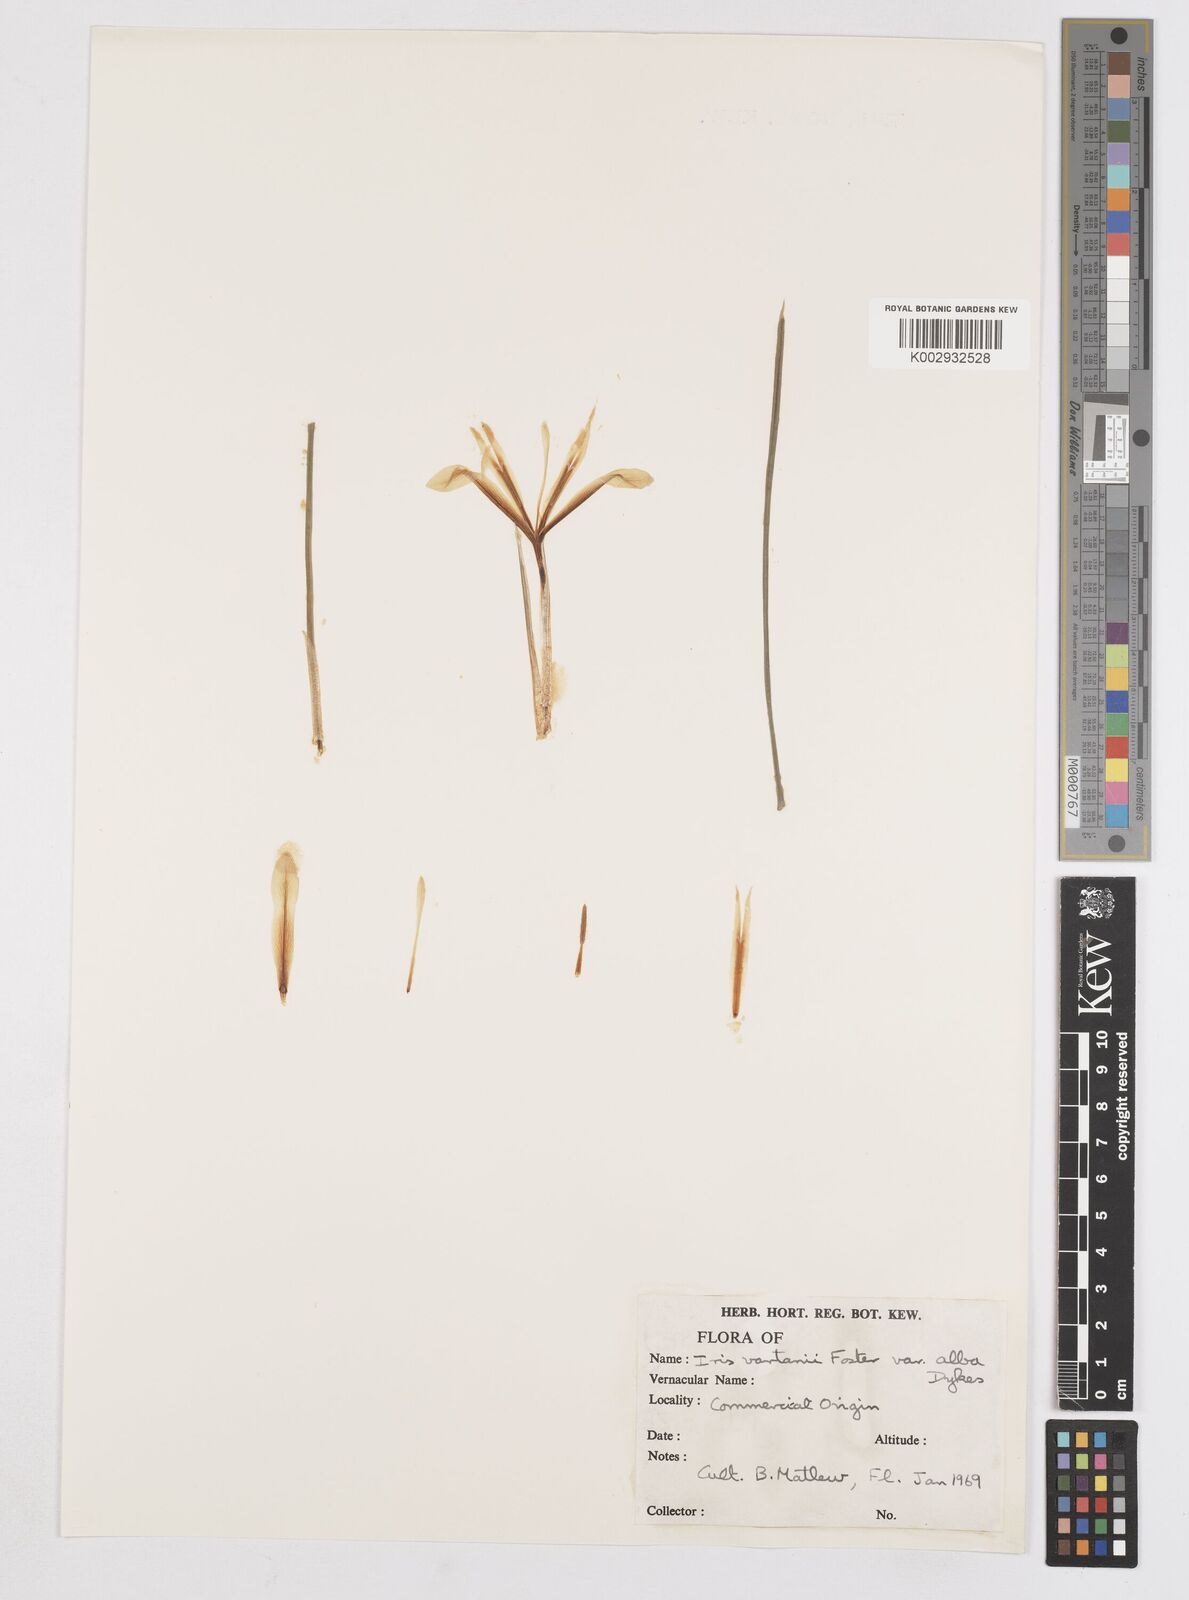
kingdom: Plantae
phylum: Tracheophyta
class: Liliopsida
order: Asparagales
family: Iridaceae
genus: Iris
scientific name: Iris vartanii
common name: Vartanii iris
